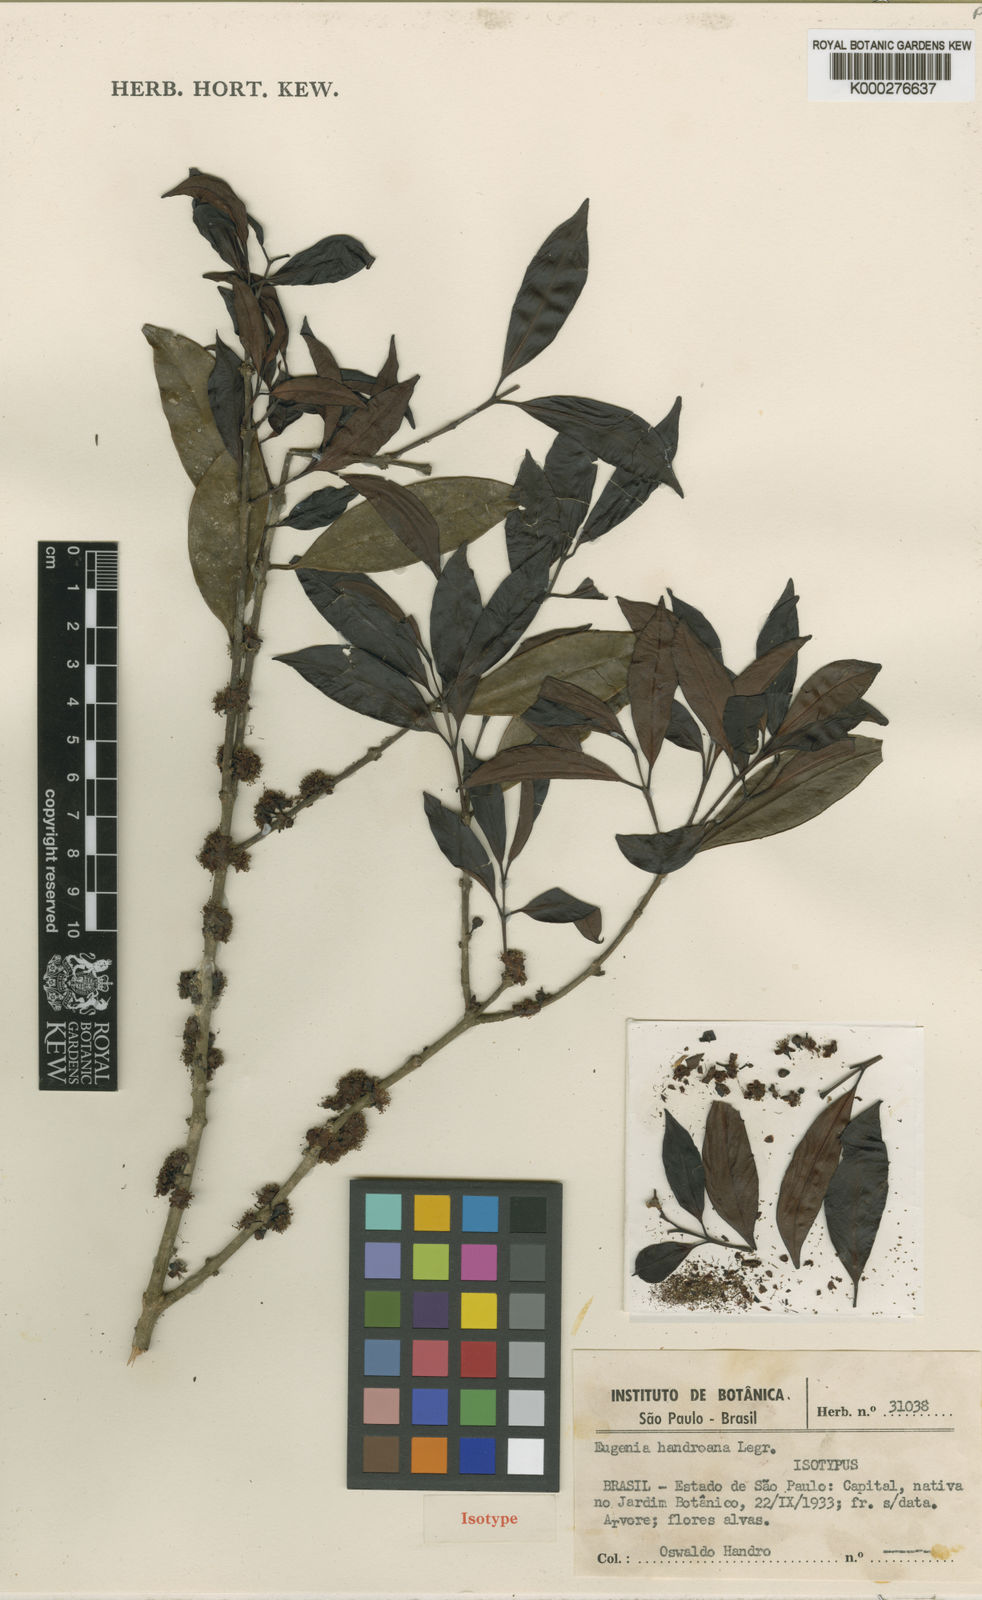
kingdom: Plantae
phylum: Tracheophyta
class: Magnoliopsida
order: Myrtales
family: Myrtaceae
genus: Eugenia
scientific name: Eugenia handroana
